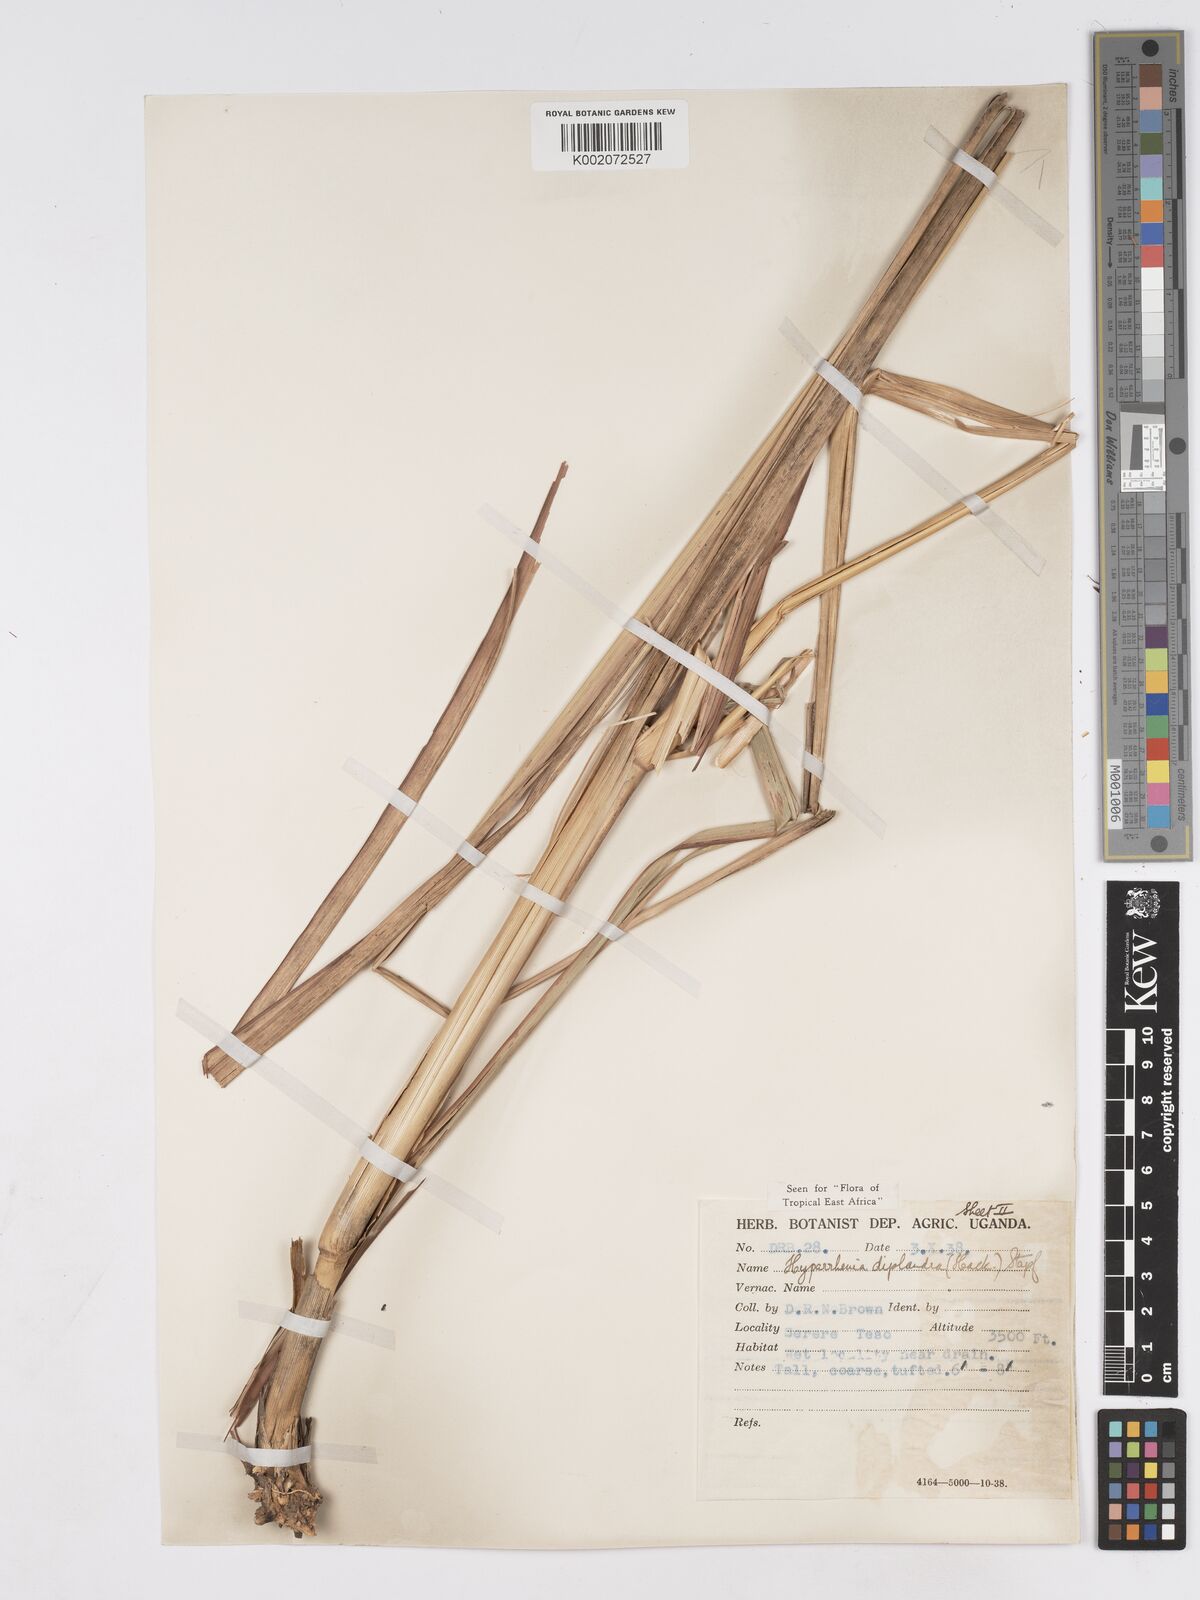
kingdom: Plantae
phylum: Tracheophyta
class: Liliopsida
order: Poales
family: Poaceae
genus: Hyparrhenia
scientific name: Hyparrhenia
